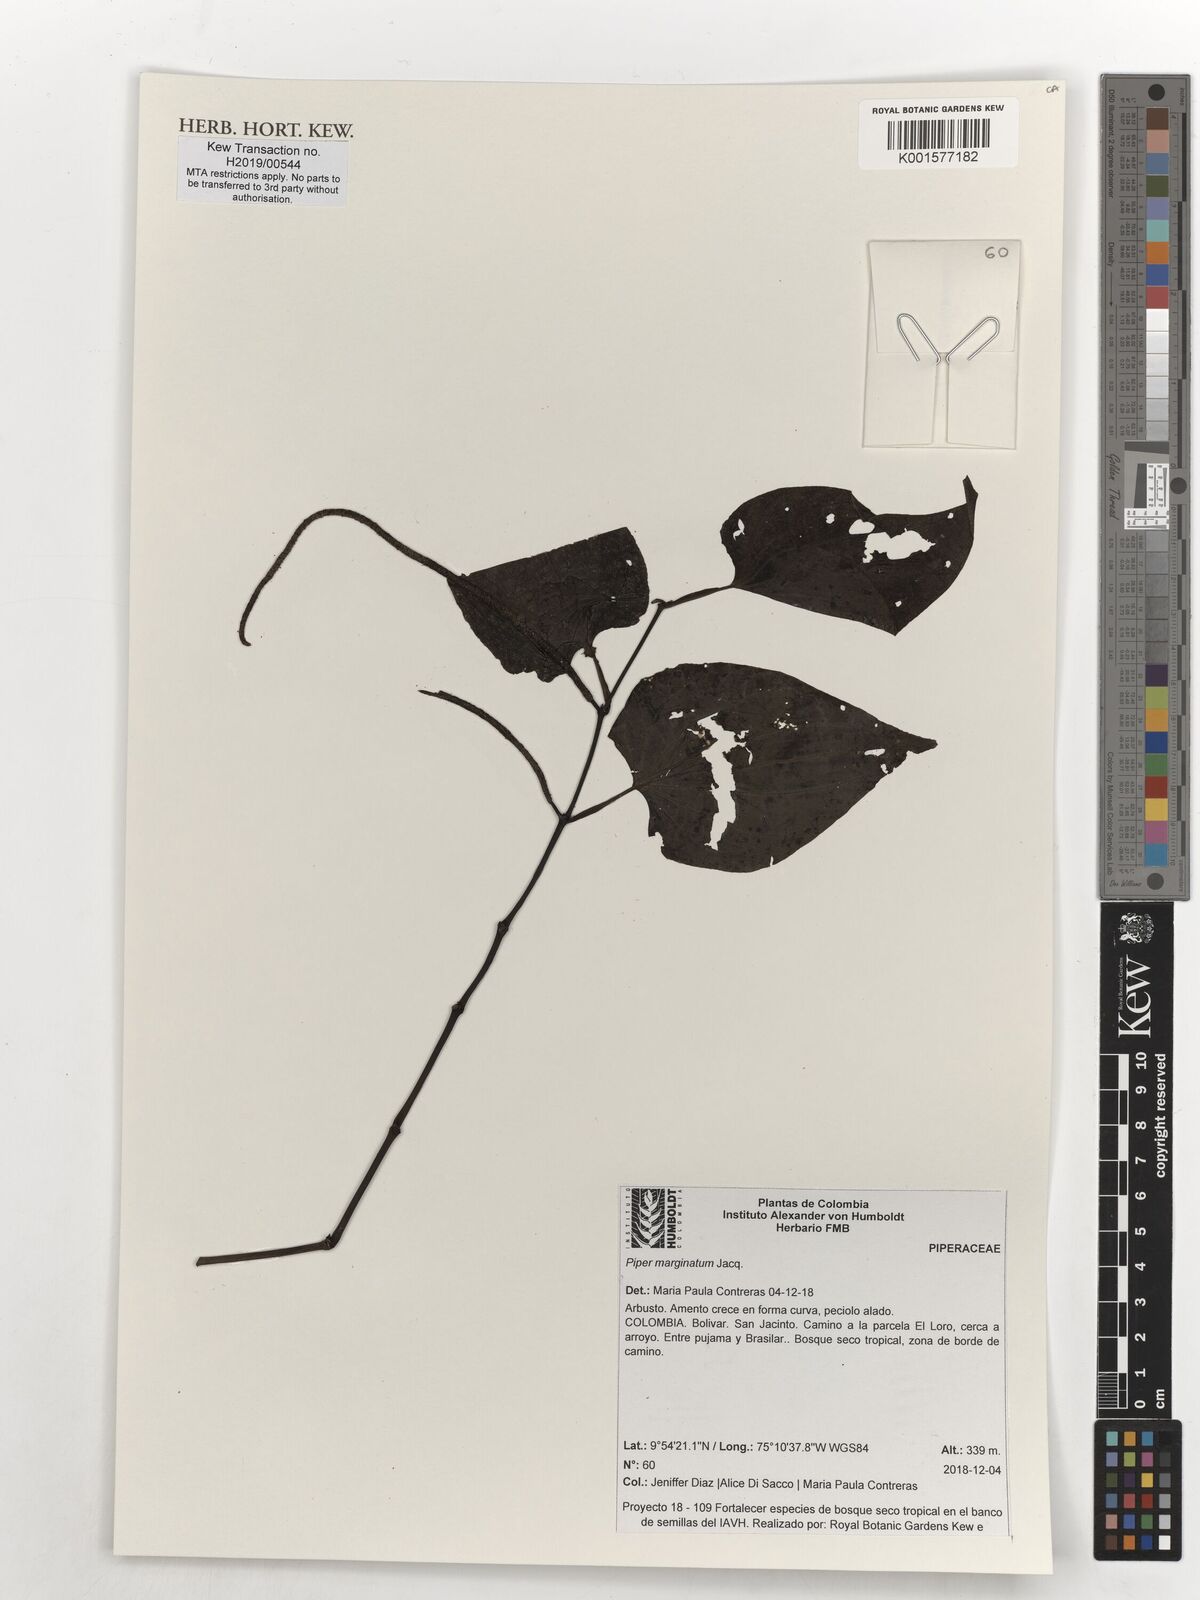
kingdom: Plantae
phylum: Tracheophyta
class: Magnoliopsida
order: Piperales
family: Piperaceae
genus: Piper
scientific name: Piper marginatum
